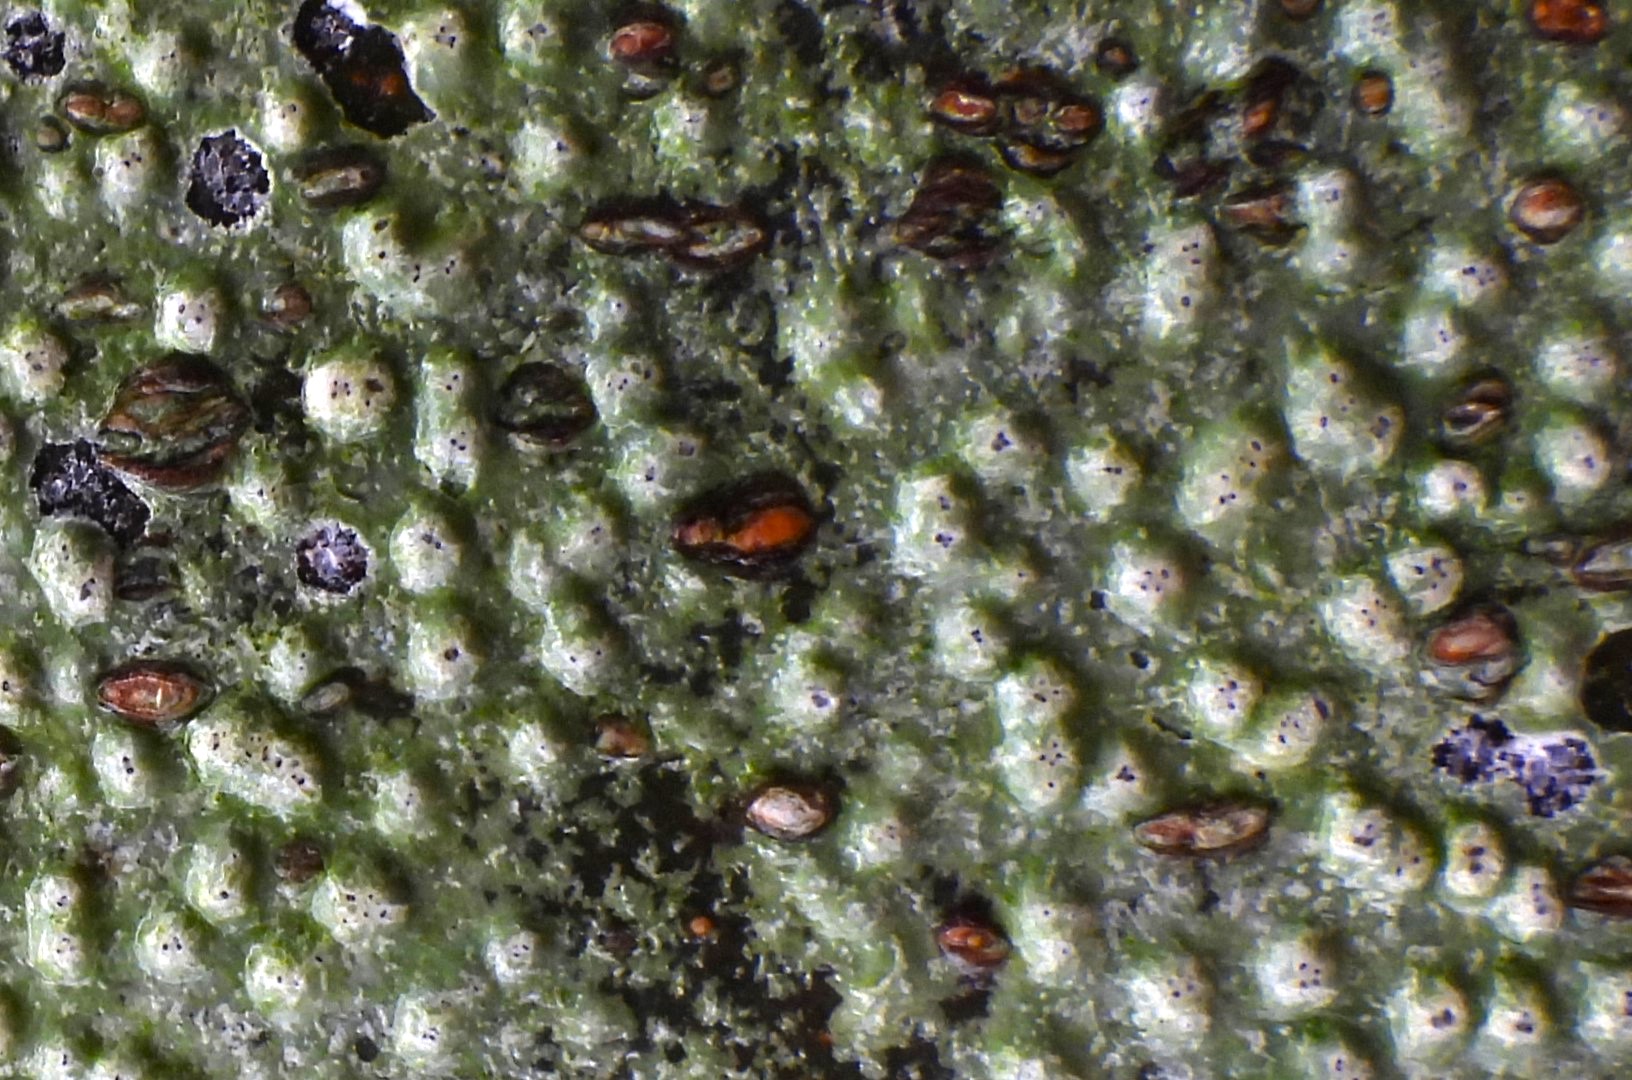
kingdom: Fungi
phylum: Ascomycota
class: Lecanoromycetes
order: Pertusariales
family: Pertusariaceae
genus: Pertusaria
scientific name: Pertusaria
